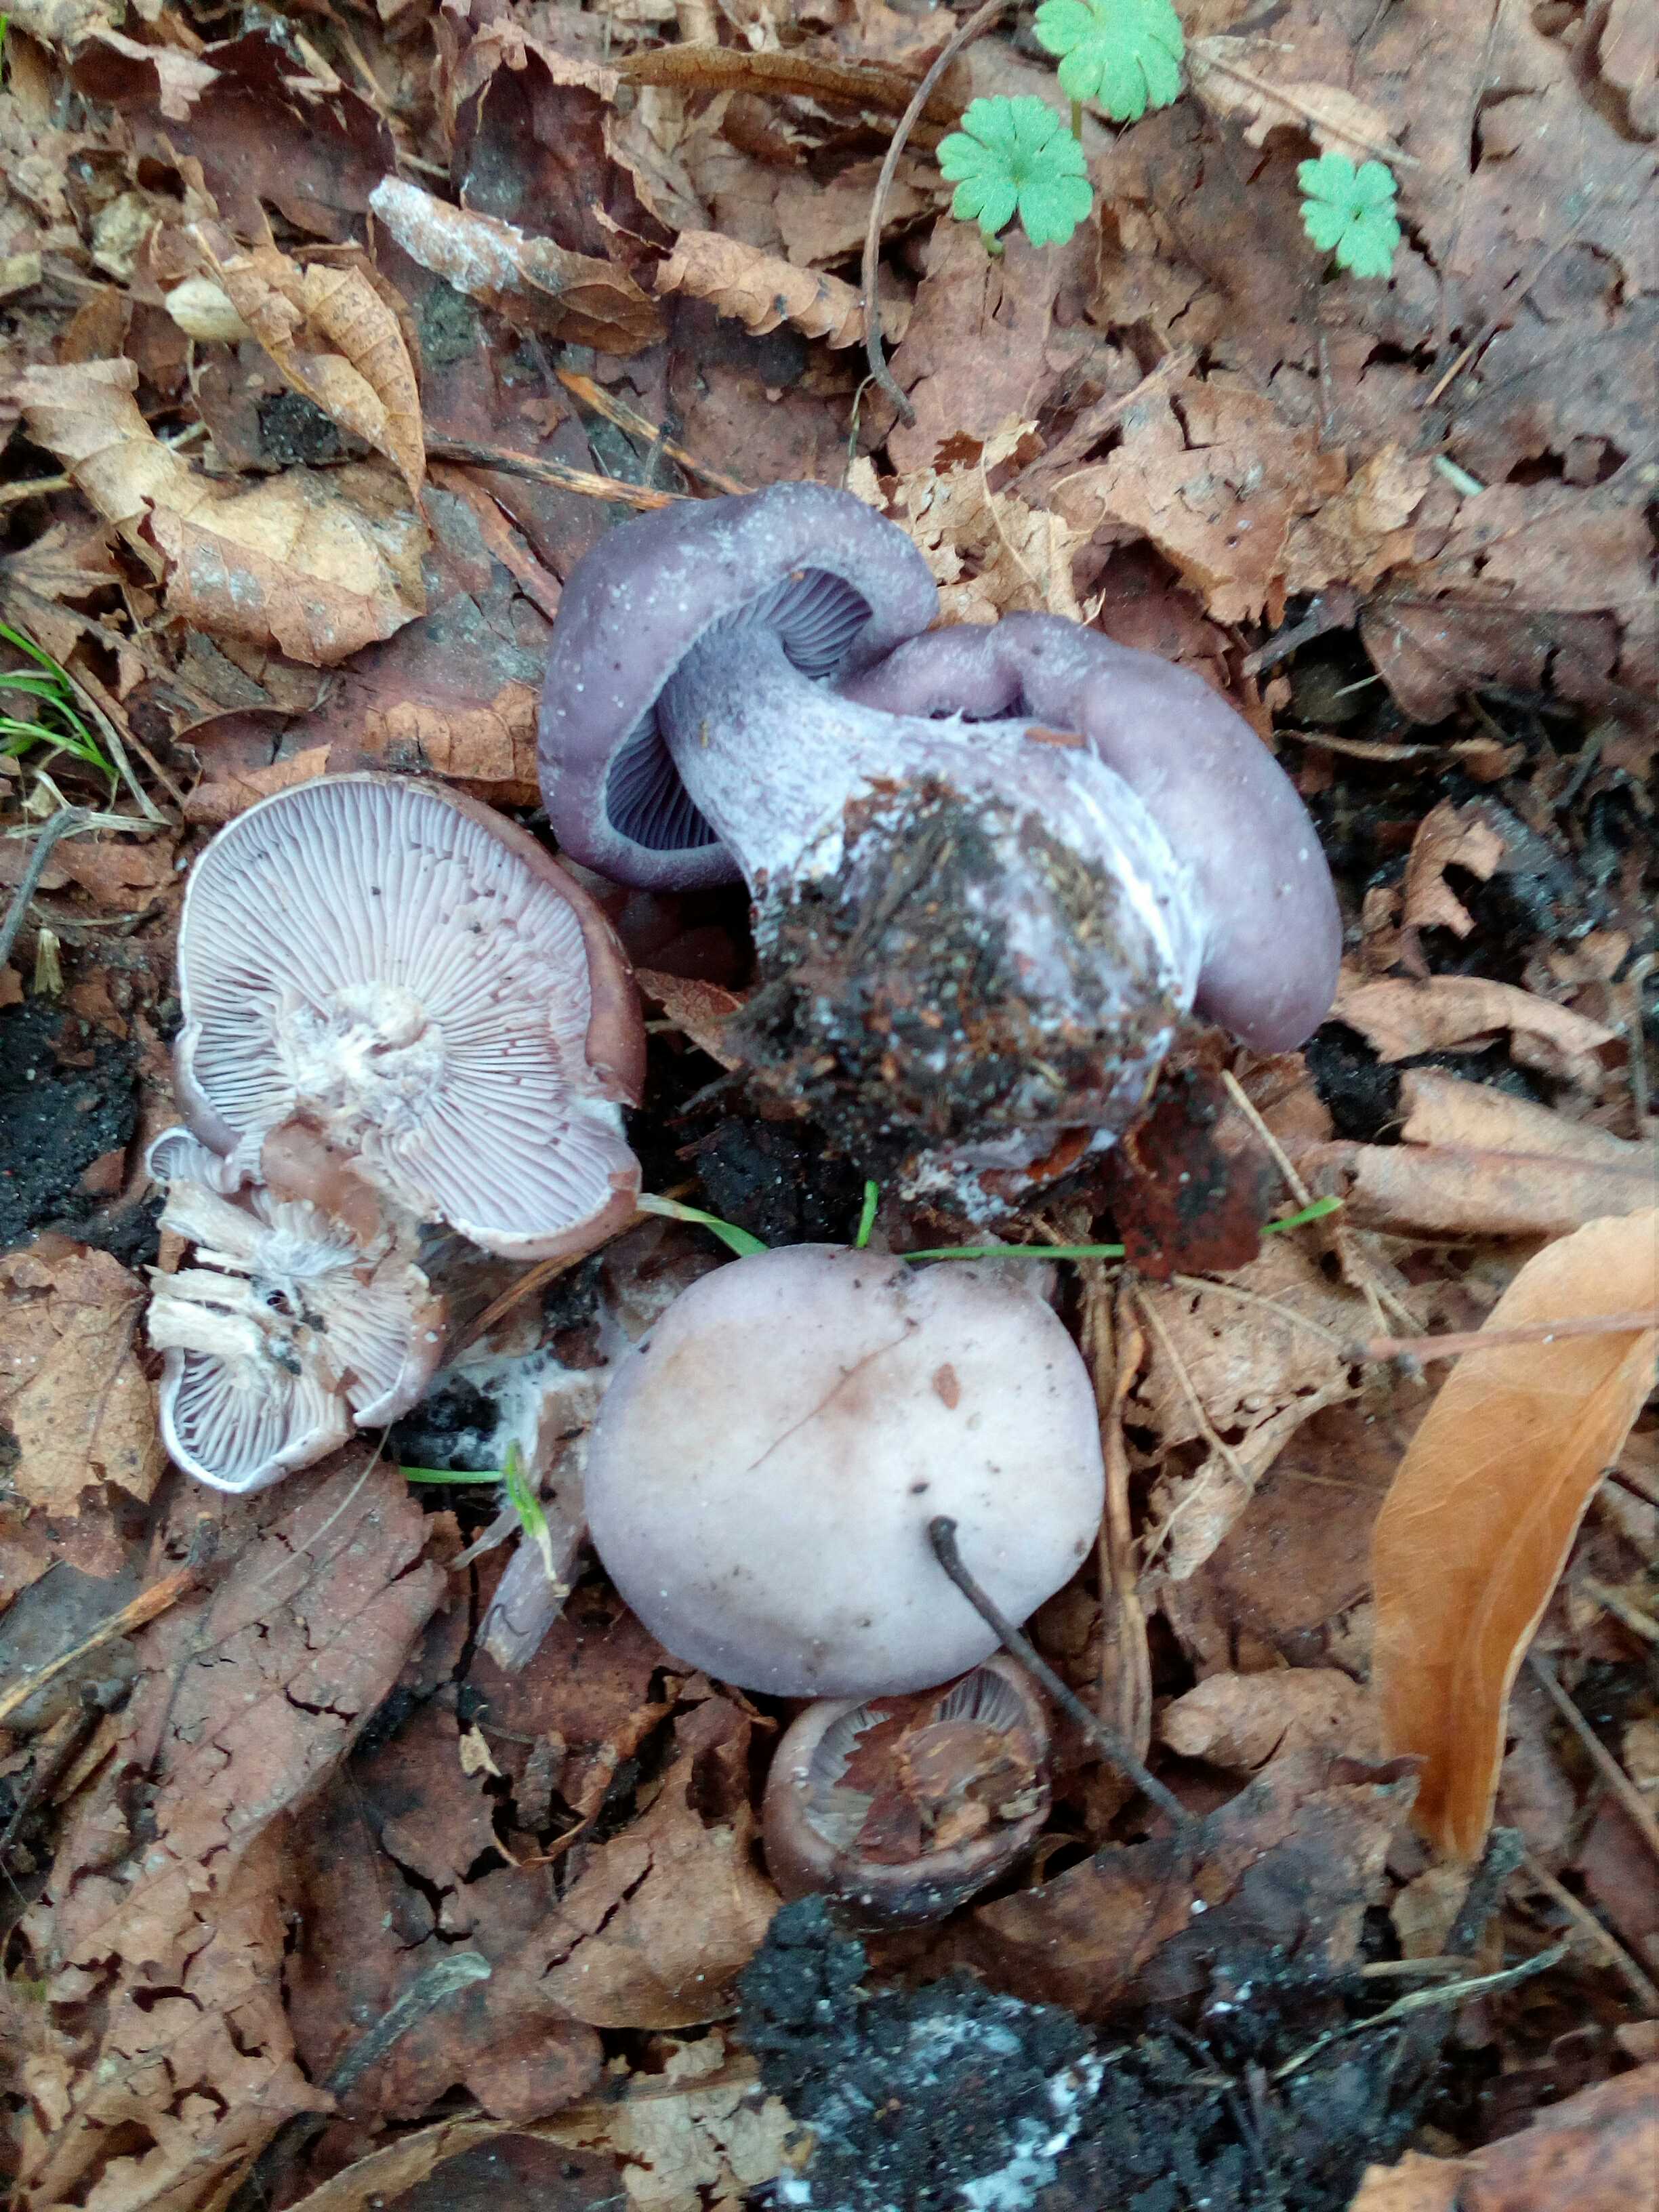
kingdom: Fungi
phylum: Basidiomycota
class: Agaricomycetes
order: Agaricales
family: Tricholomataceae
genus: Lepista
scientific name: Lepista nuda
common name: violet hekseringshat
